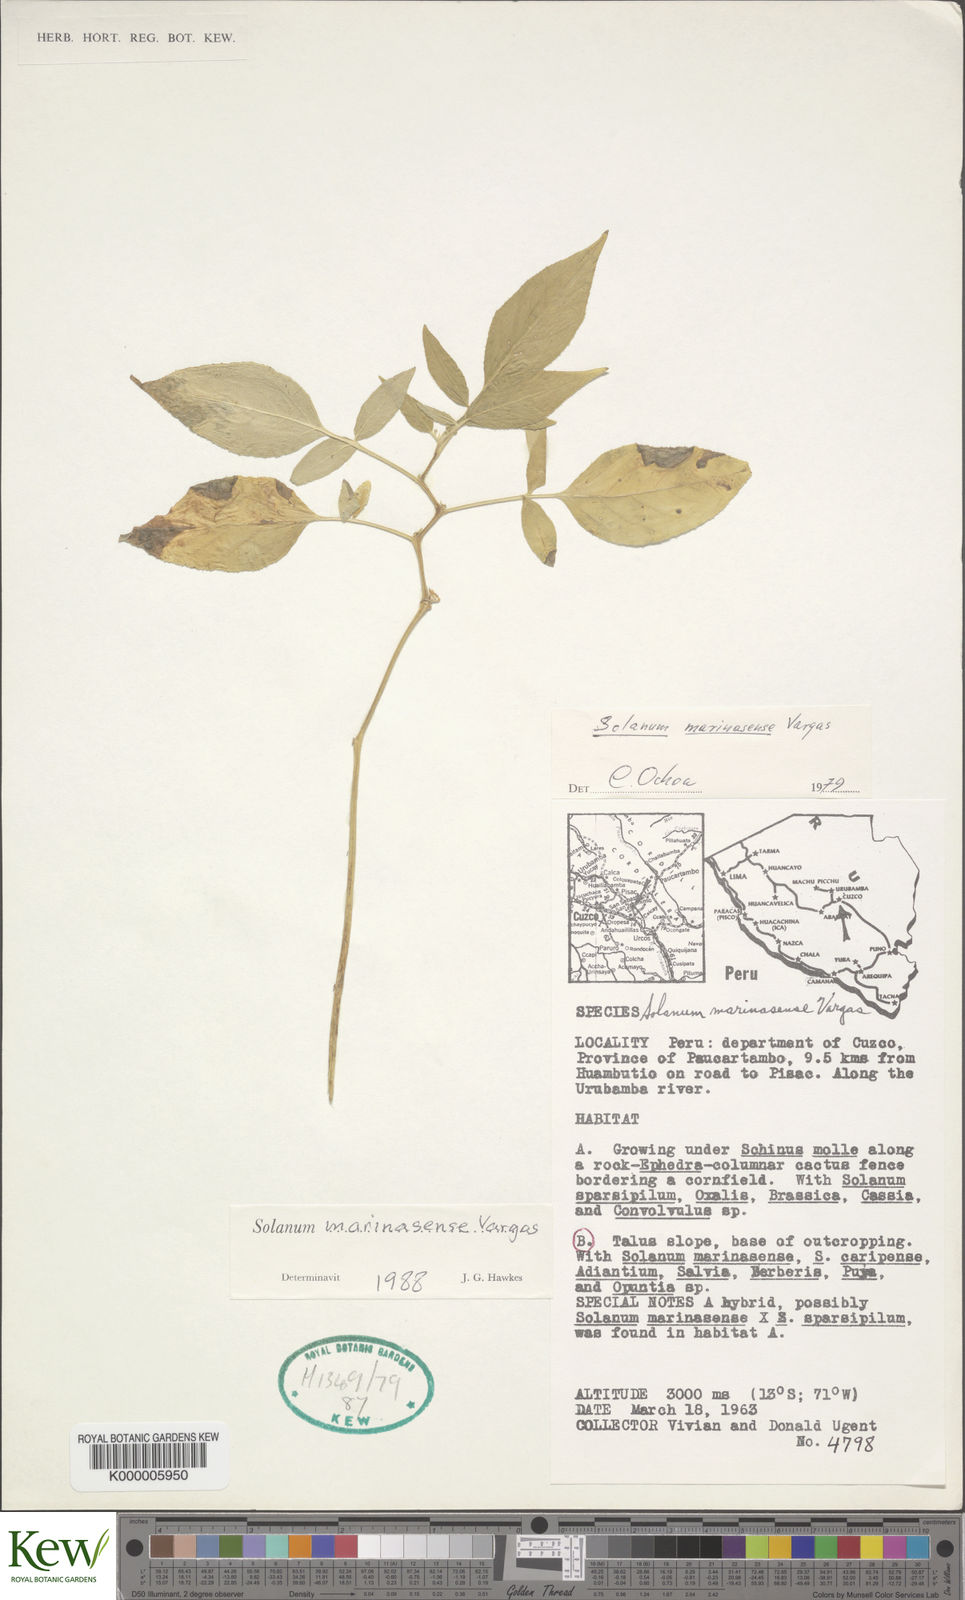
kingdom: Plantae
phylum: Tracheophyta
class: Magnoliopsida
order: Solanales
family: Solanaceae
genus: Solanum
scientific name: Solanum candolleanum
